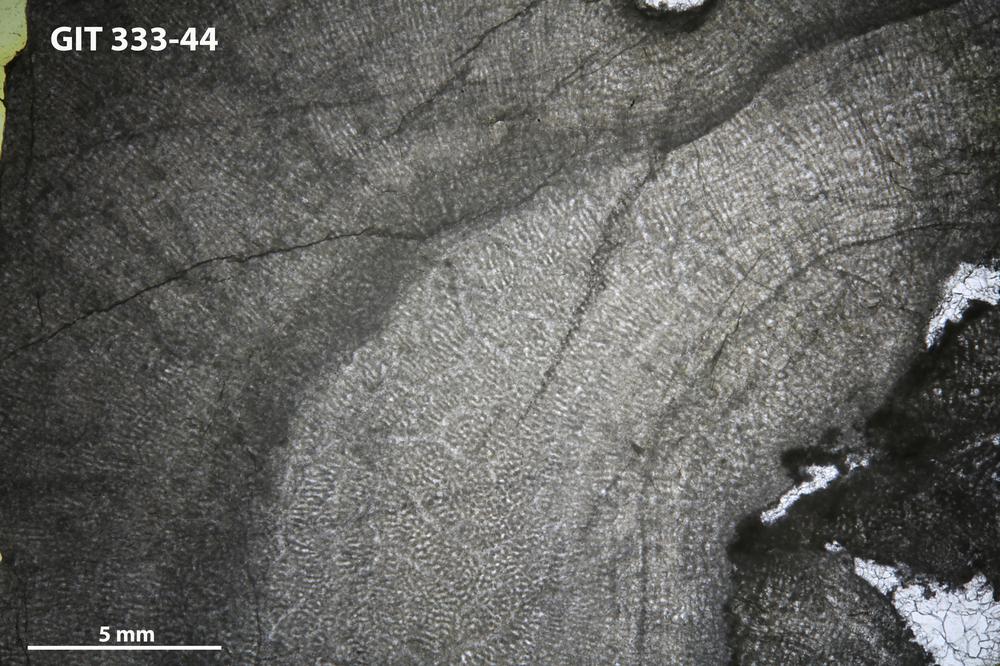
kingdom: Animalia
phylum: Porifera
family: Pseudolabechiidae
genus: Vikingia
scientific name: Vikingia
